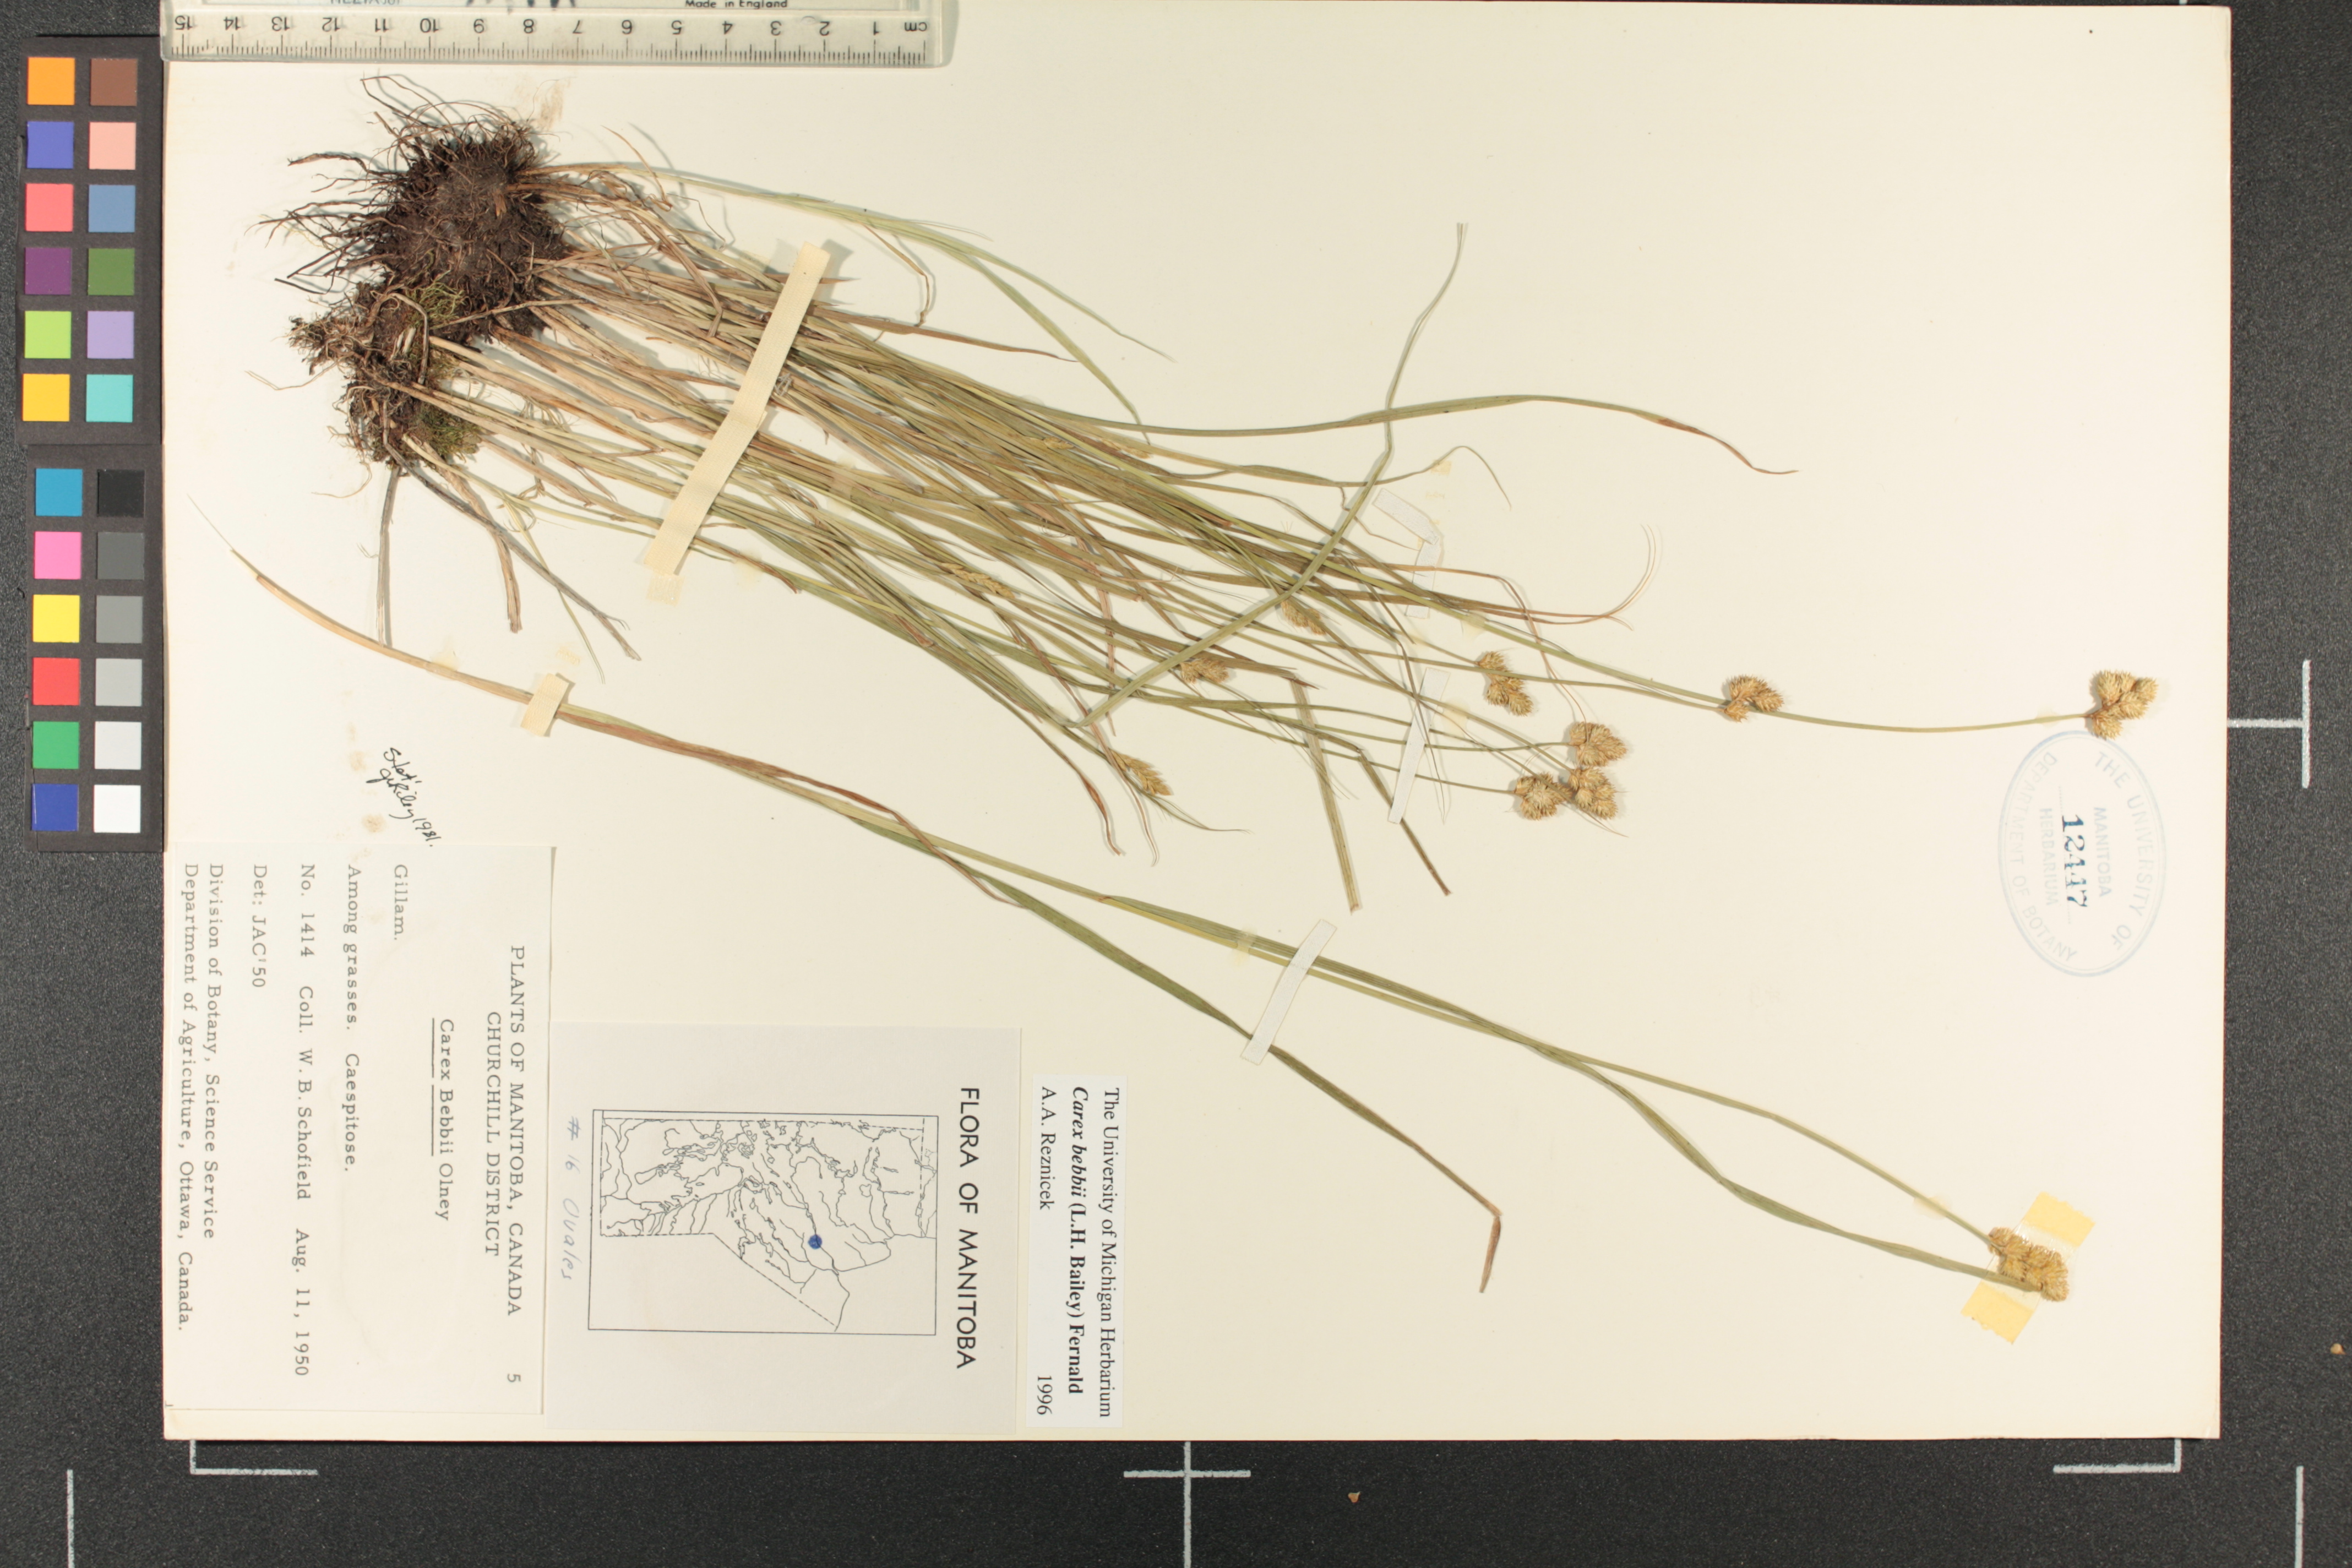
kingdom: Plantae
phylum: Tracheophyta
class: Liliopsida
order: Poales
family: Cyperaceae
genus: Carex
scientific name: Carex bebbii
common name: Bebb's sedge
